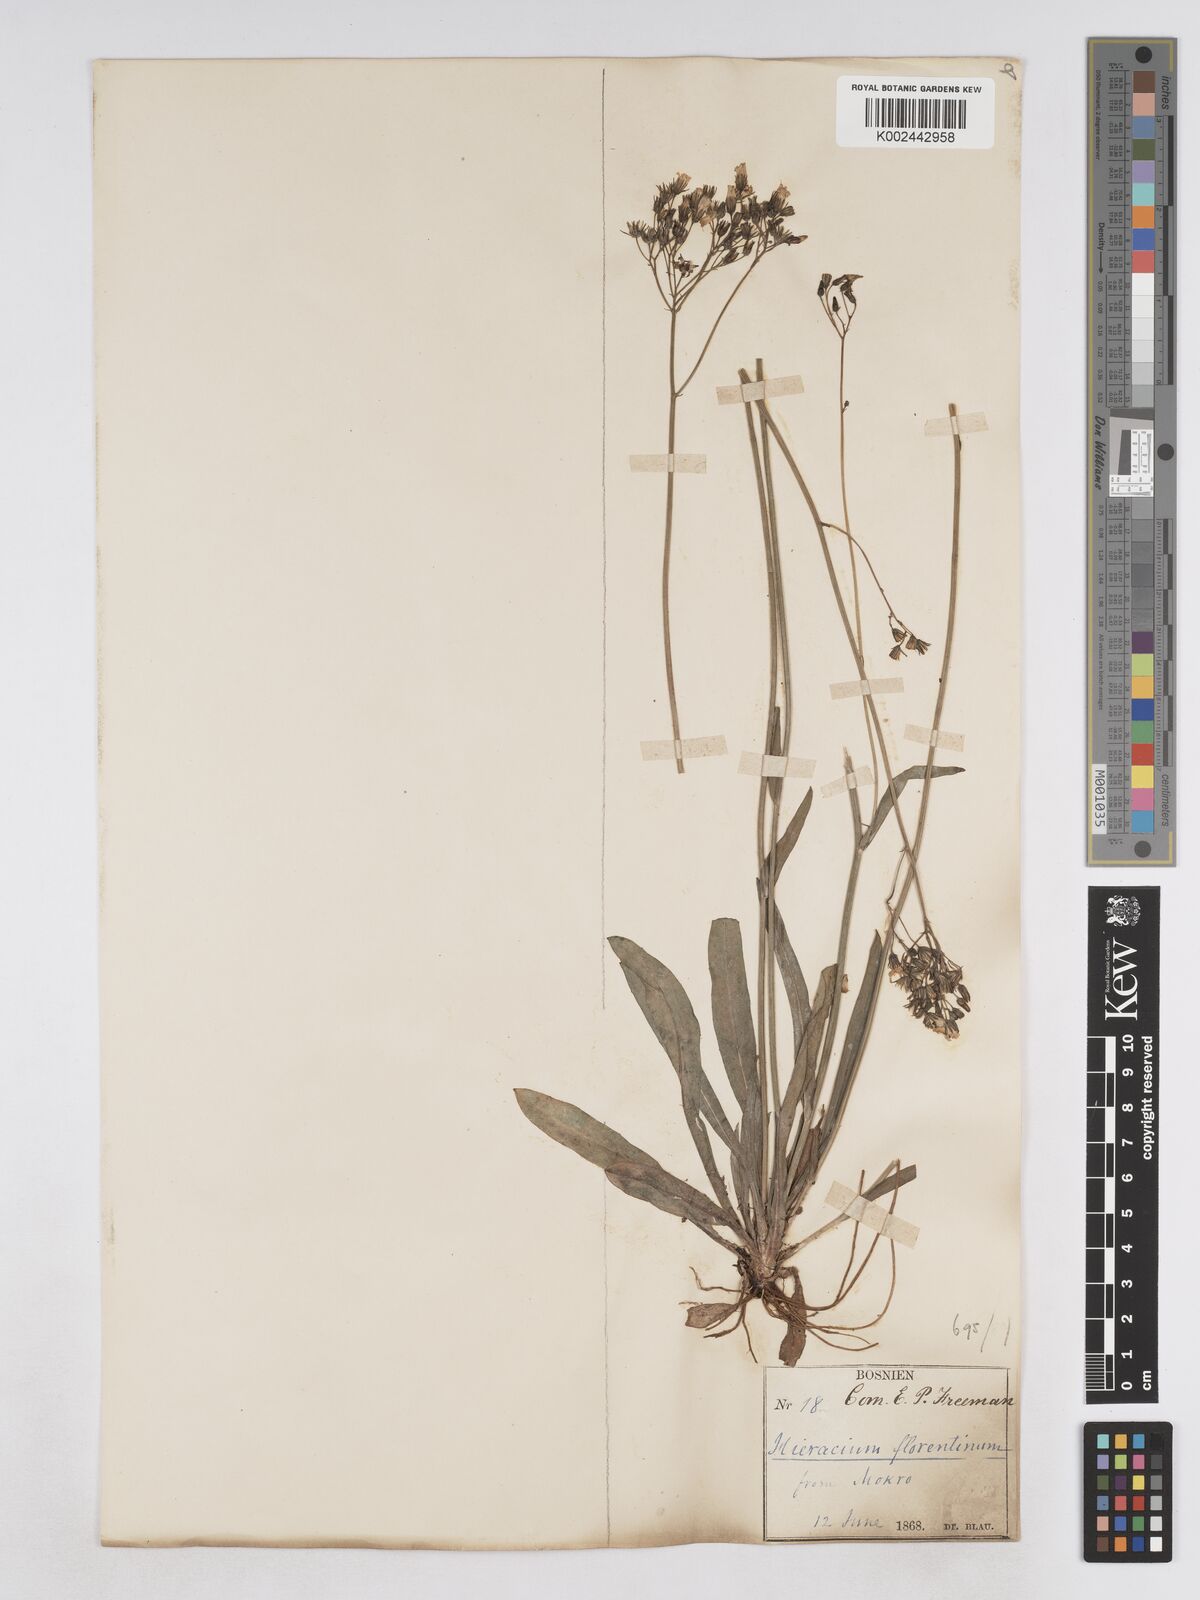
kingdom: Plantae
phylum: Tracheophyta
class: Magnoliopsida
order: Asterales
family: Asteraceae
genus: Pilosella
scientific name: Pilosella piloselloides
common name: Glaucous king-devil
